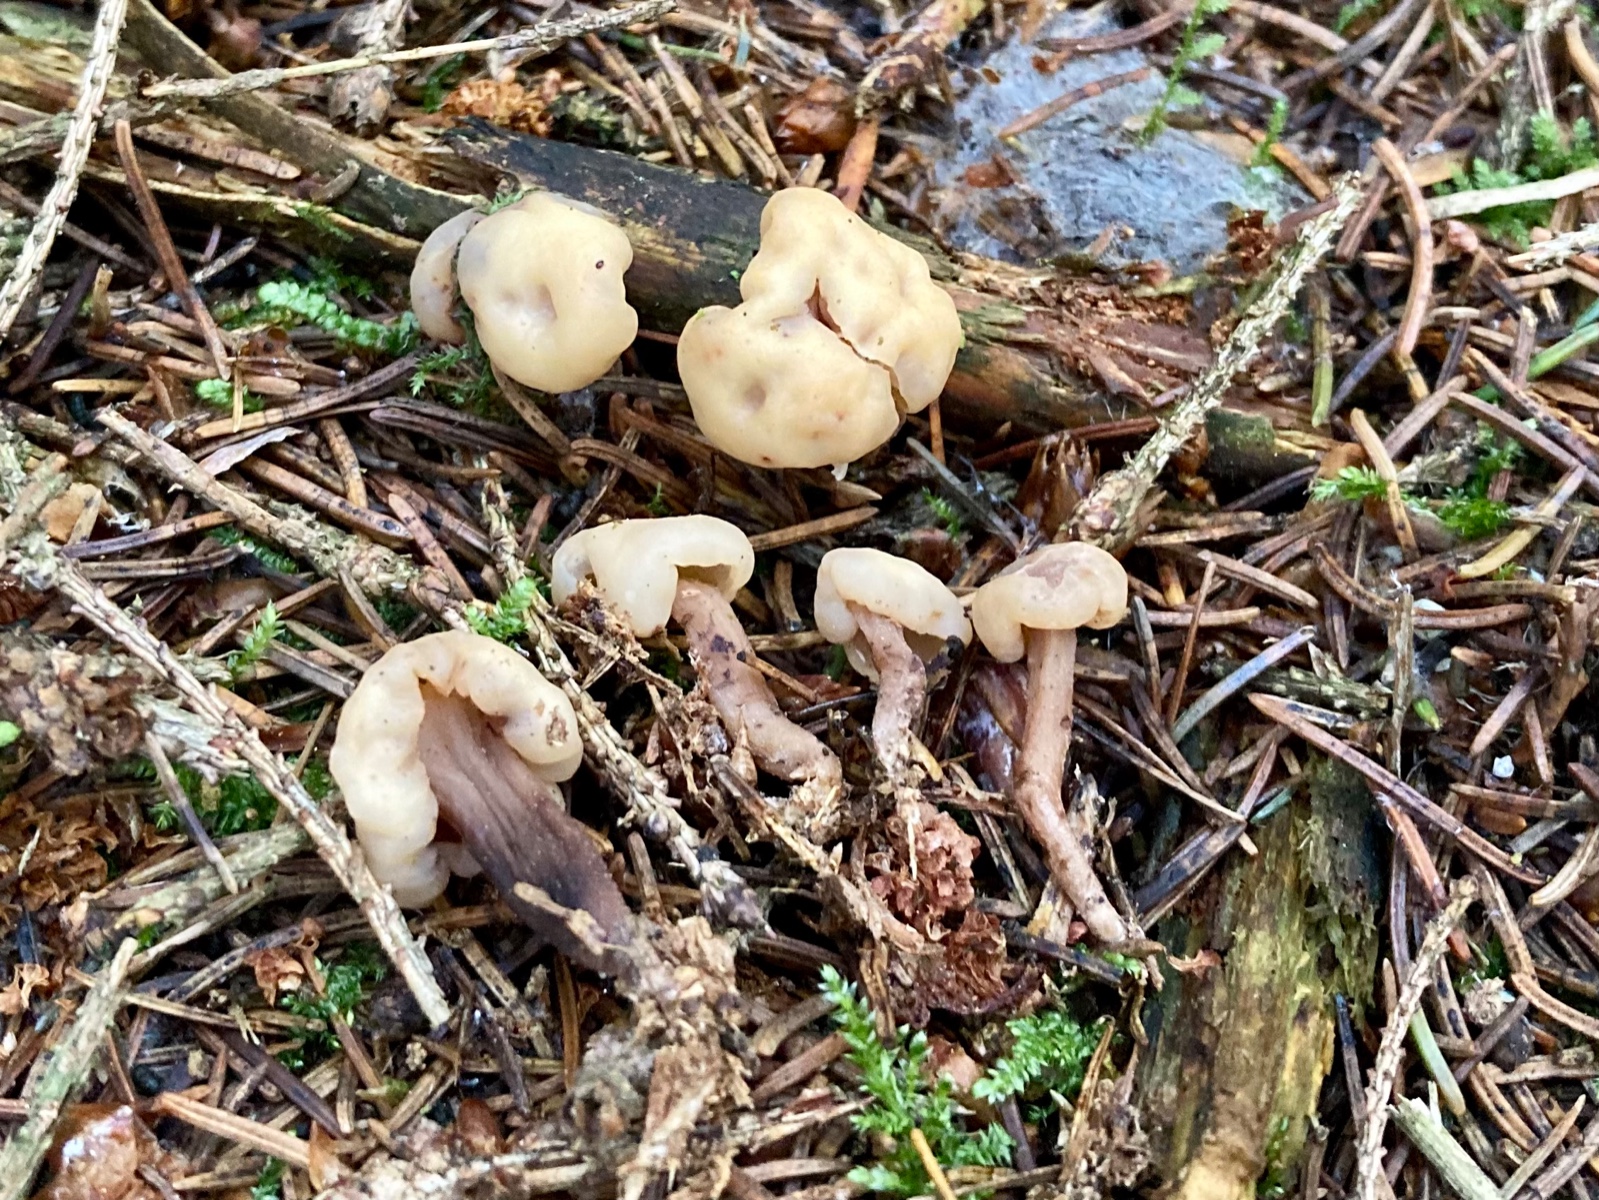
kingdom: Fungi
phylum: Ascomycota
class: Leotiomycetes
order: Rhytismatales
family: Cudoniaceae
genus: Cudonia
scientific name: Cudonia circinans
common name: hekserings-hjelmmorkel
